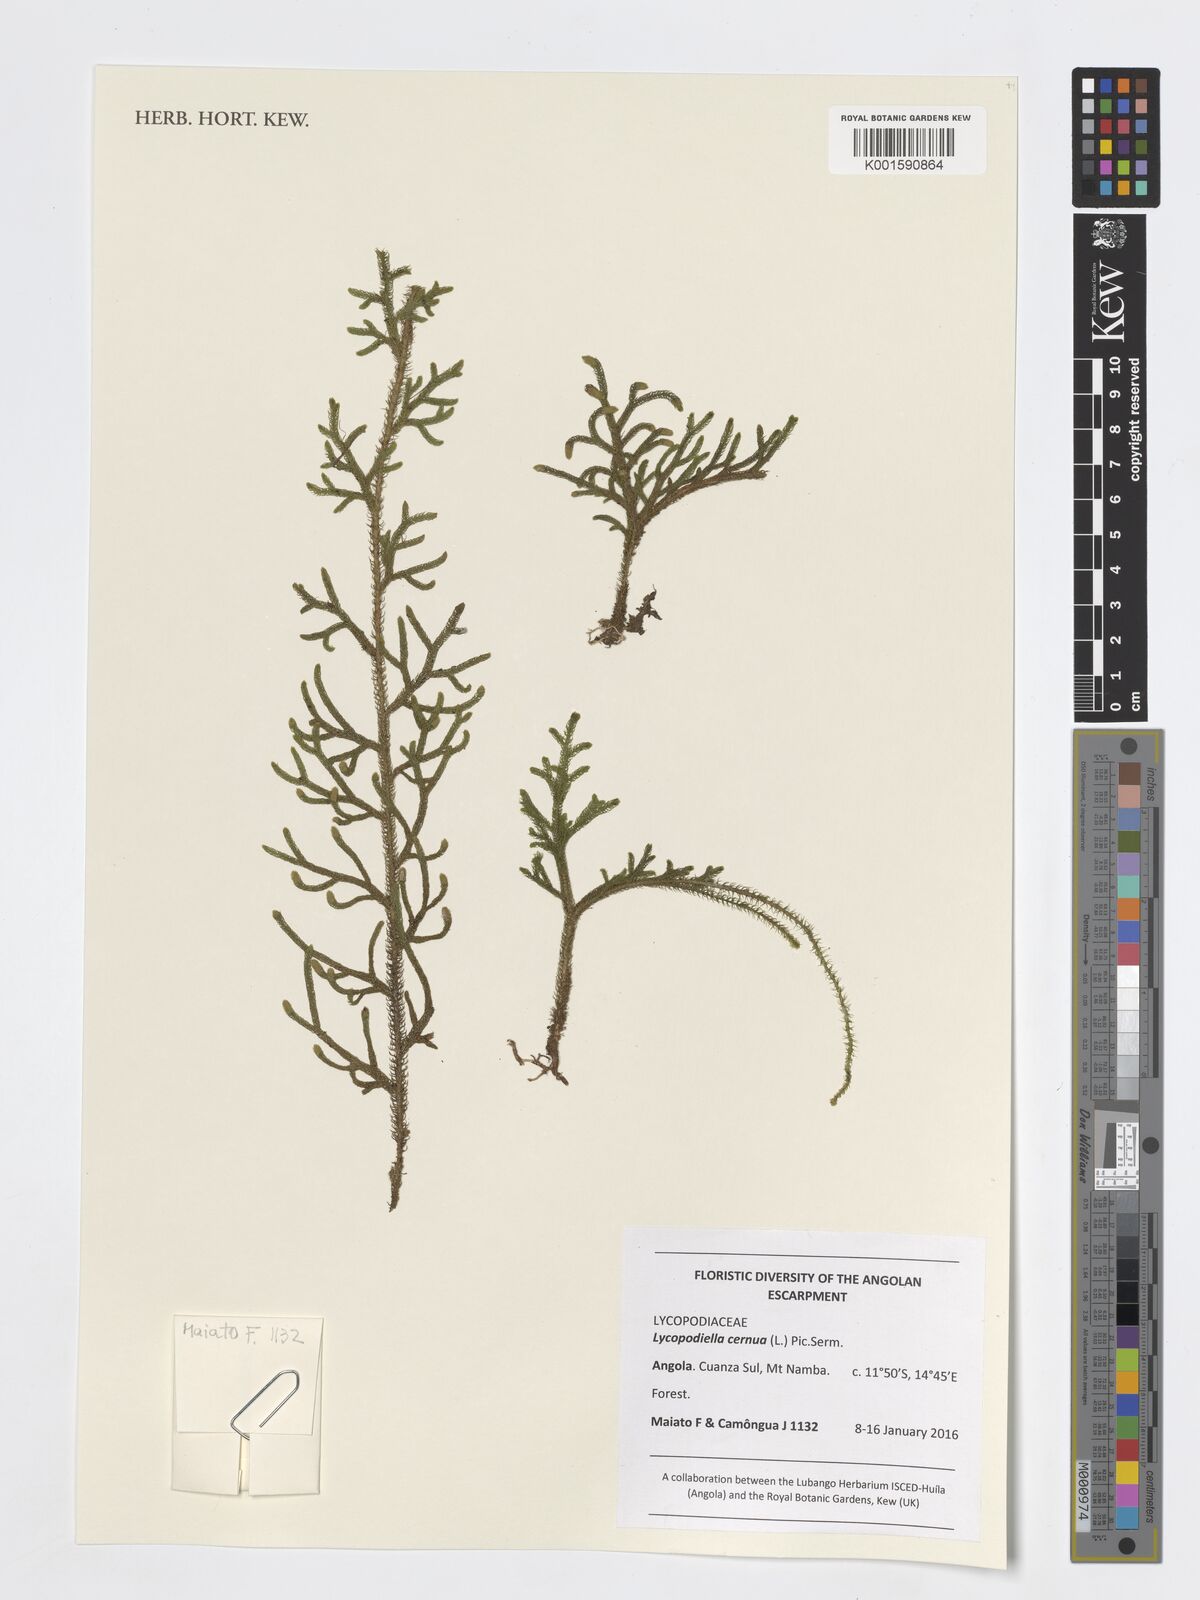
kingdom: Plantae
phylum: Tracheophyta
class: Lycopodiopsida
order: Lycopodiales
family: Lycopodiaceae
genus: Palhinhaea
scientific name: Palhinhaea cernua
